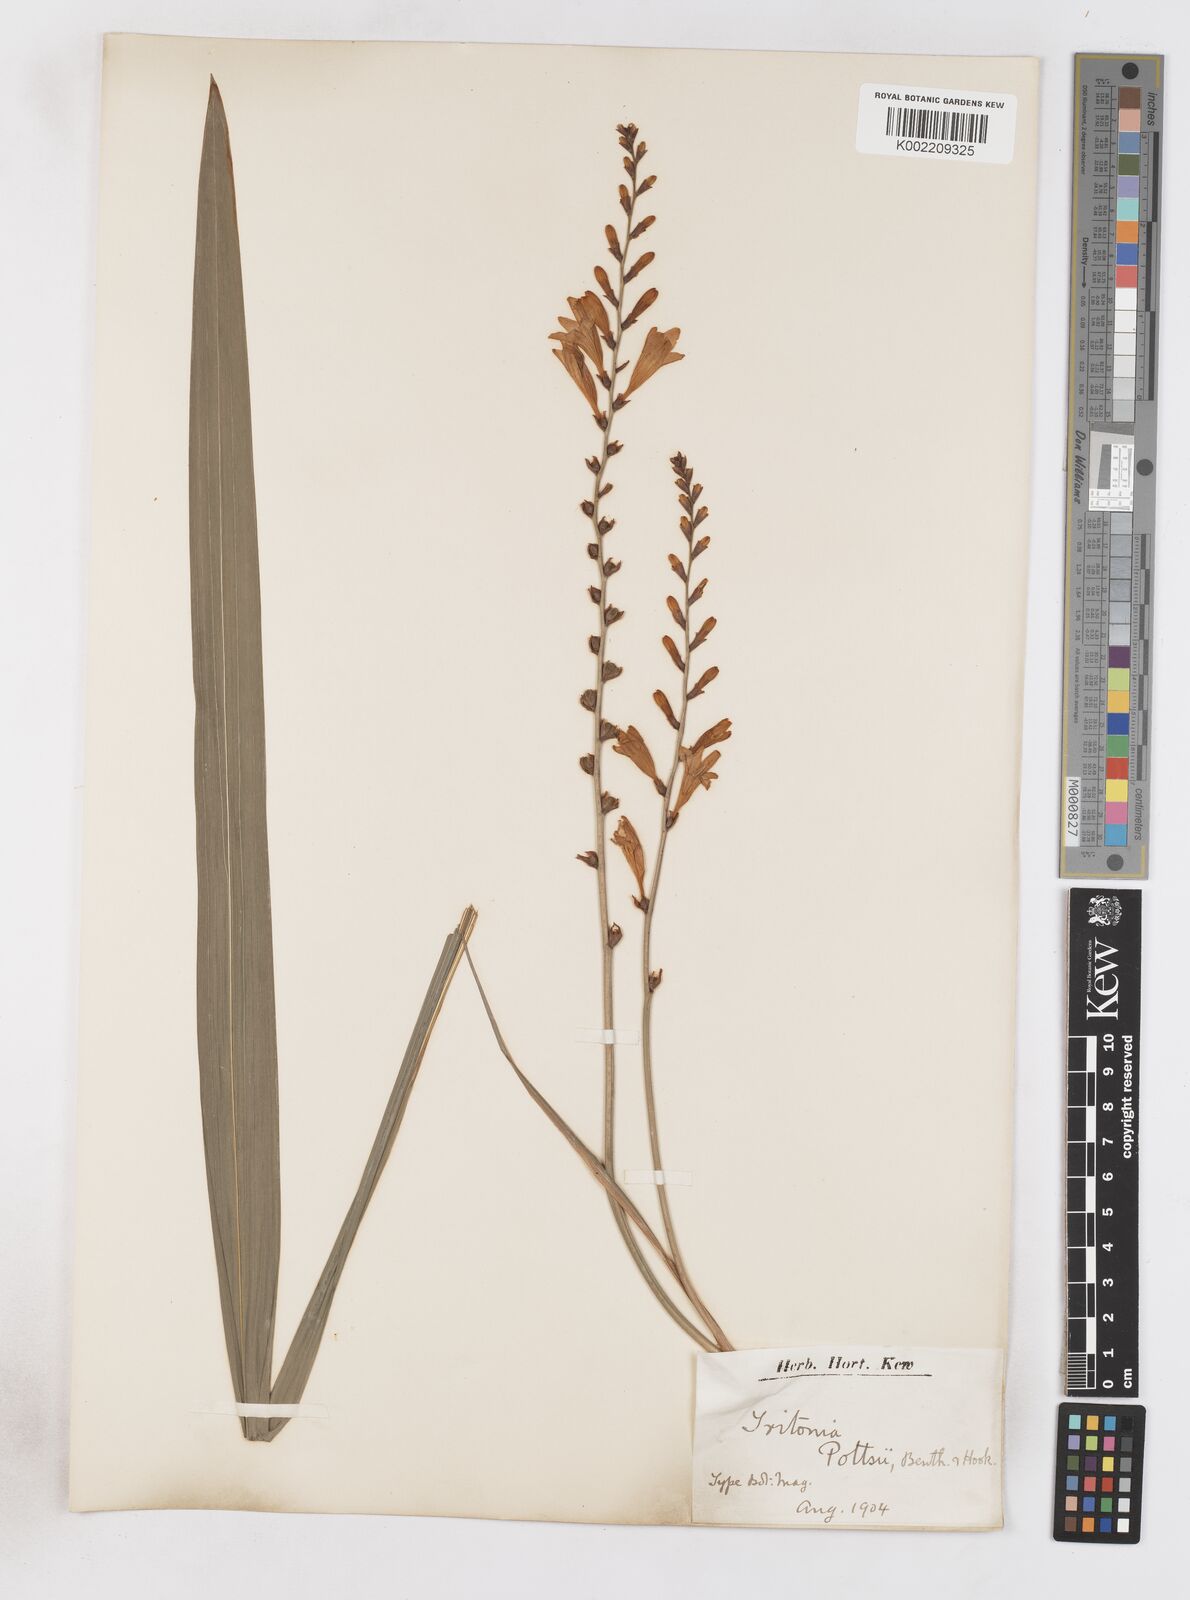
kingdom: Plantae
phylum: Tracheophyta
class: Liliopsida
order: Asparagales
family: Iridaceae
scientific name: Iridaceae
